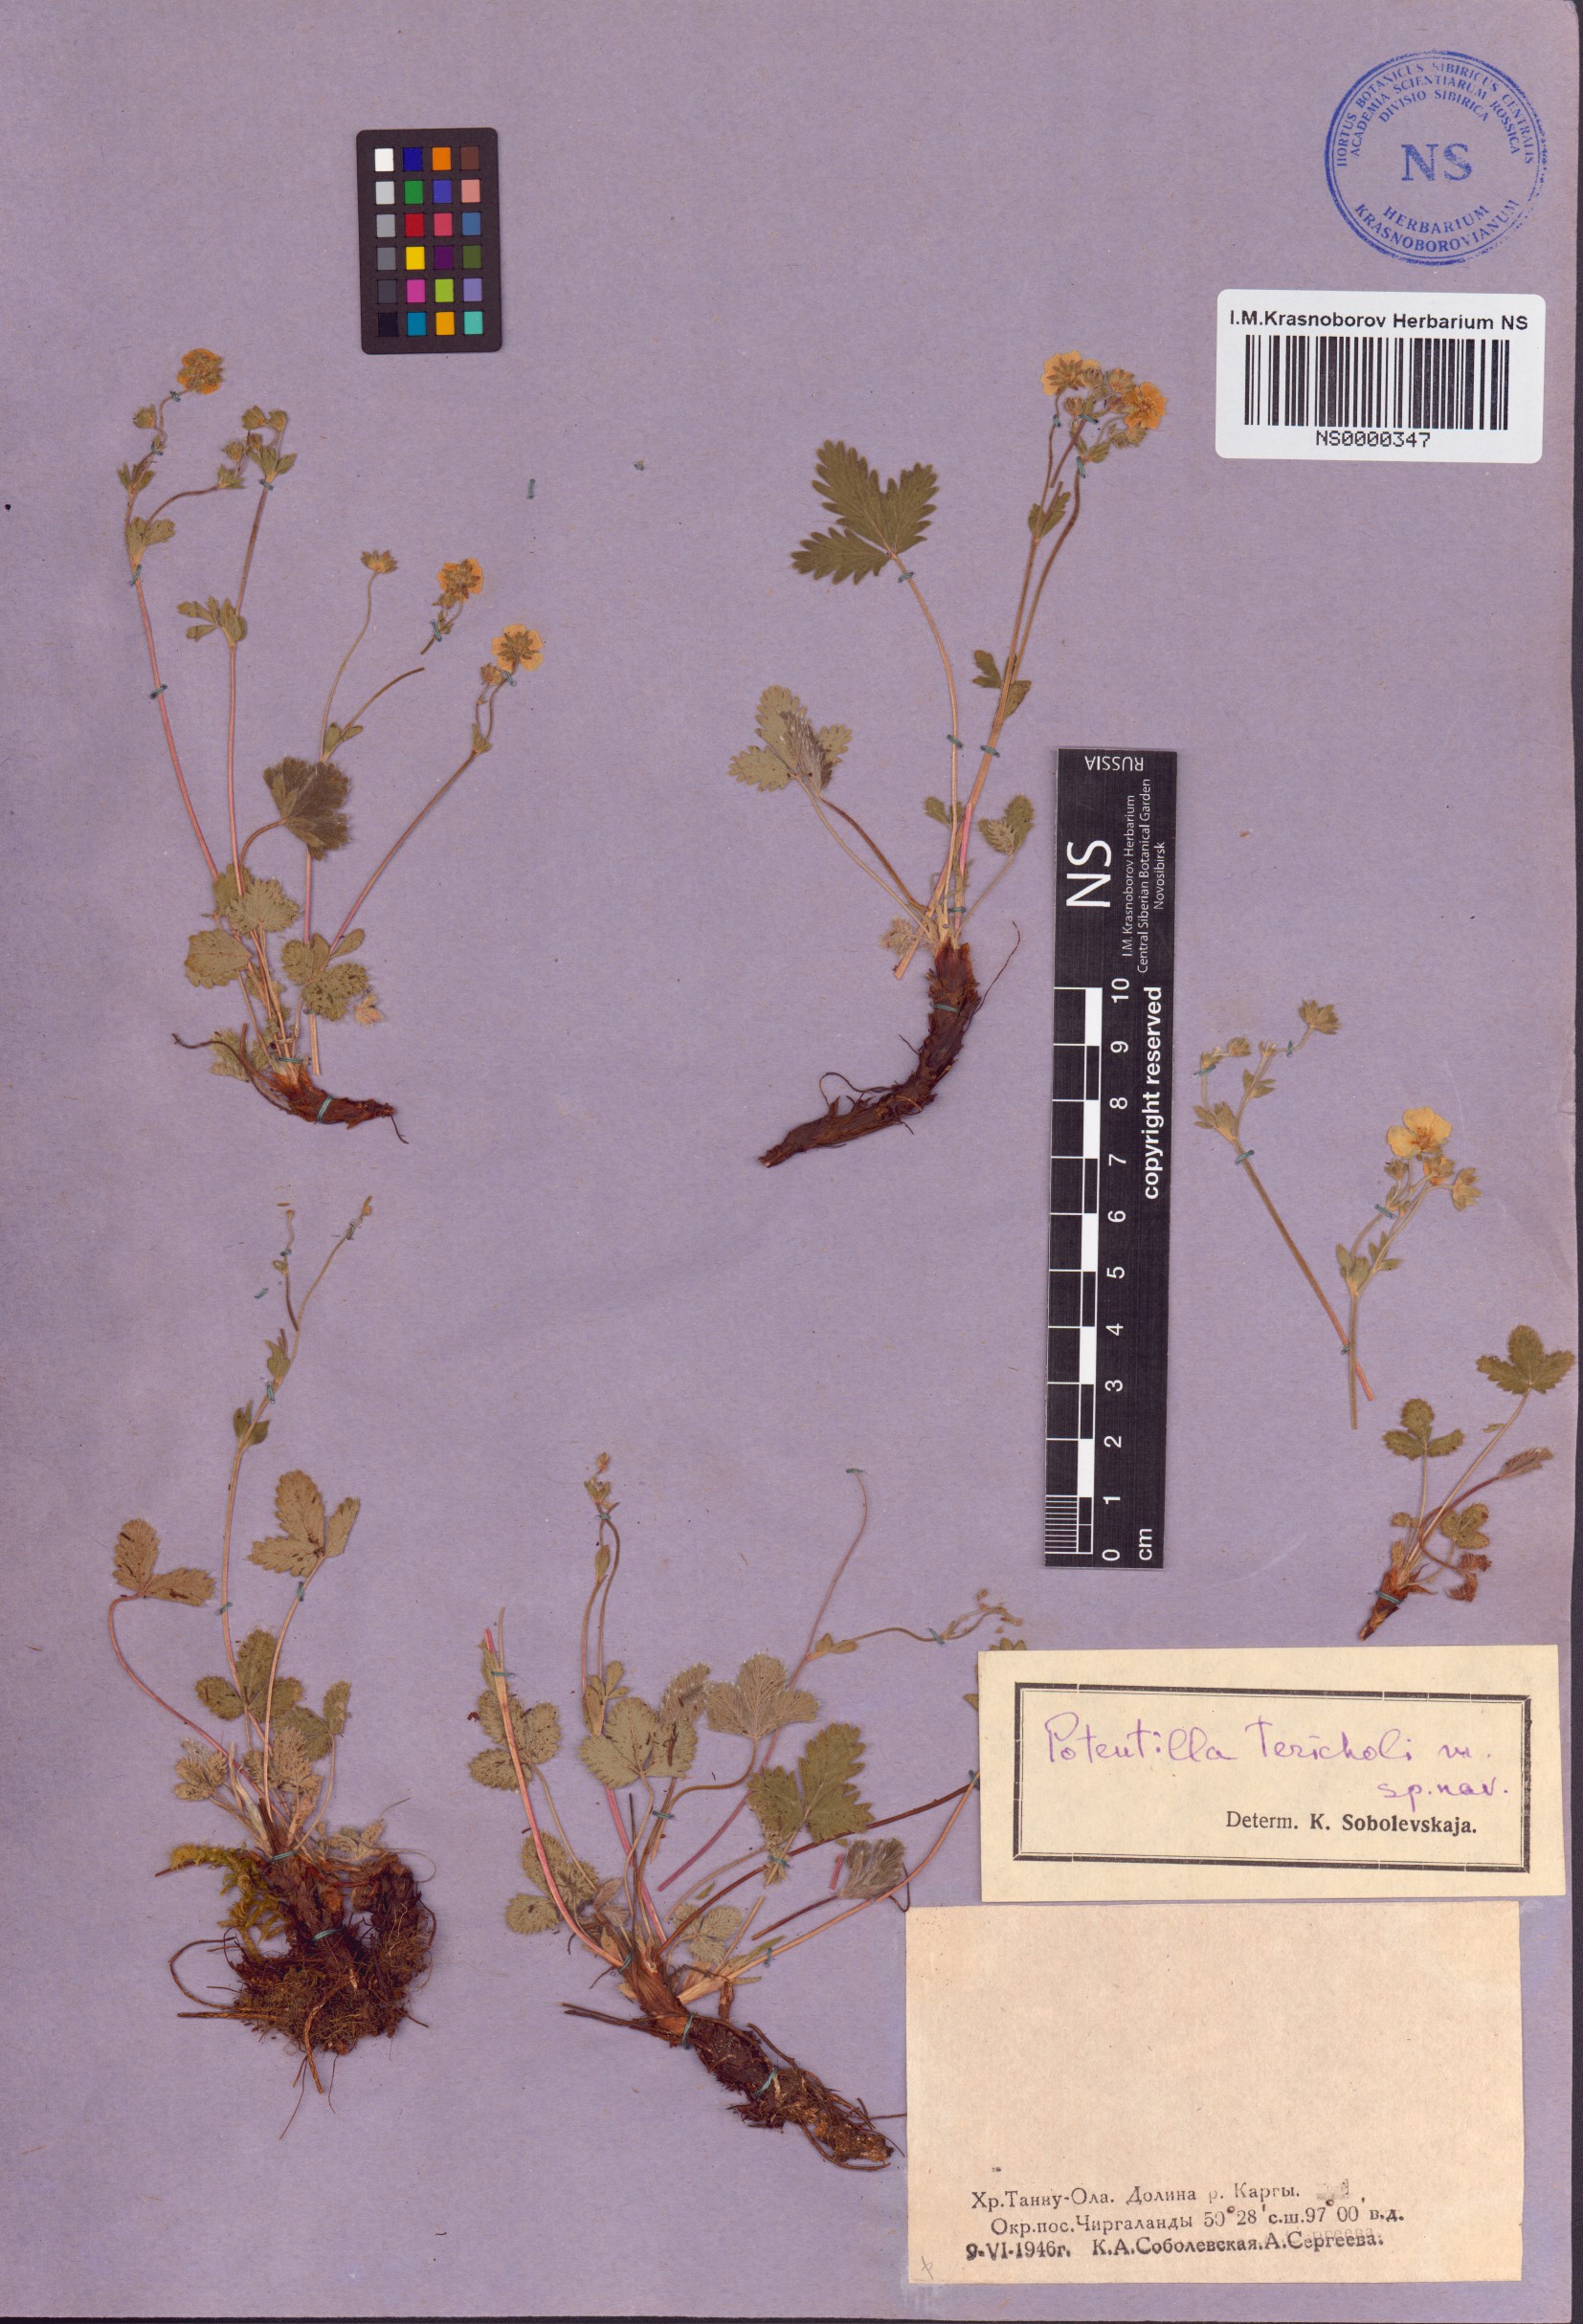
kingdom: Plantae
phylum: Tracheophyta
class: Magnoliopsida
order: Rosales
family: Rosaceae
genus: Potentilla
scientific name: Potentilla tericholica
